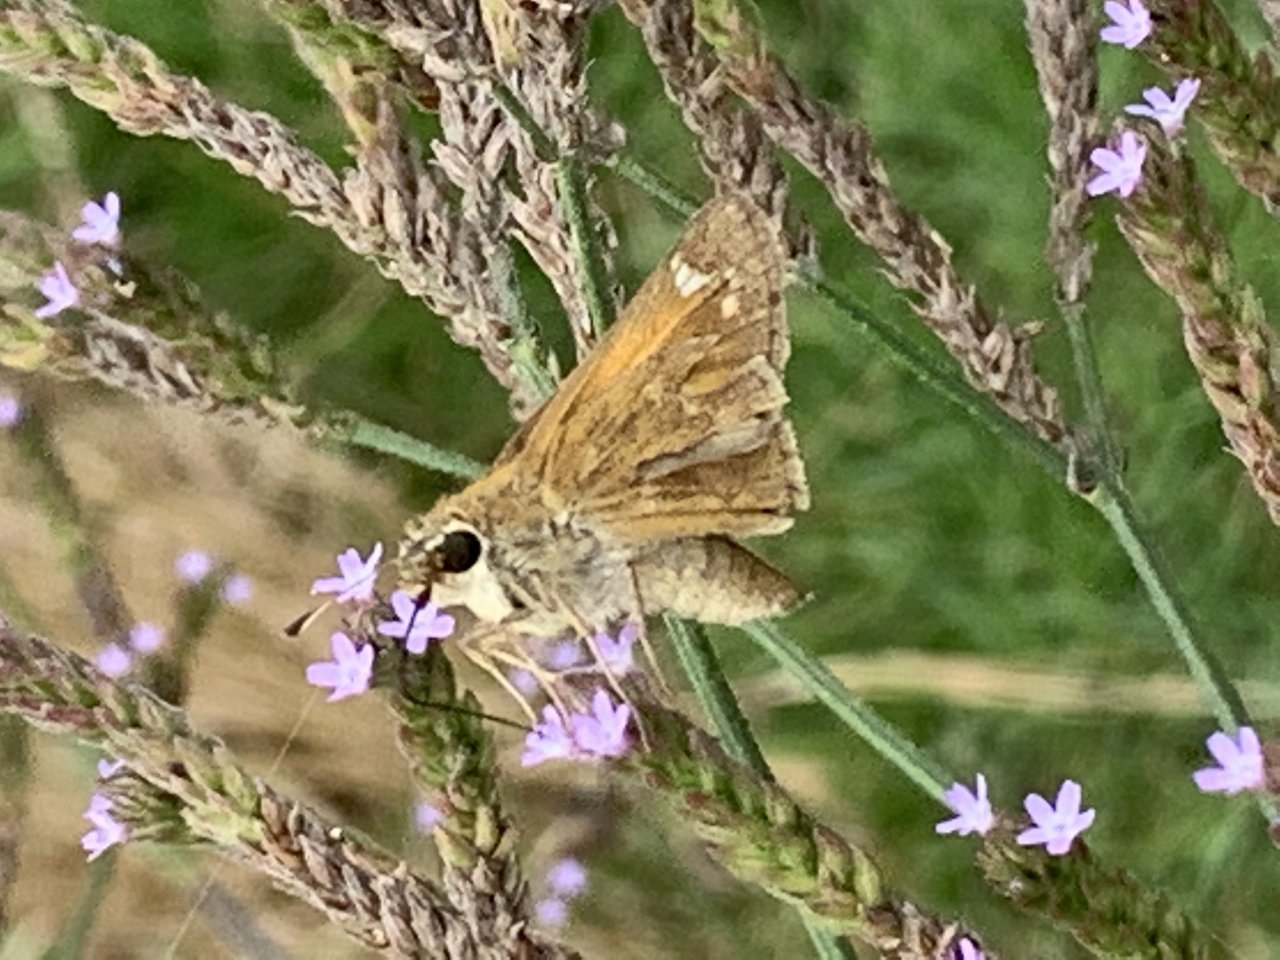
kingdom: Animalia
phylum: Arthropoda
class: Insecta
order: Lepidoptera
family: Hesperiidae
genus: Atalopedes
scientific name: Atalopedes campestris
